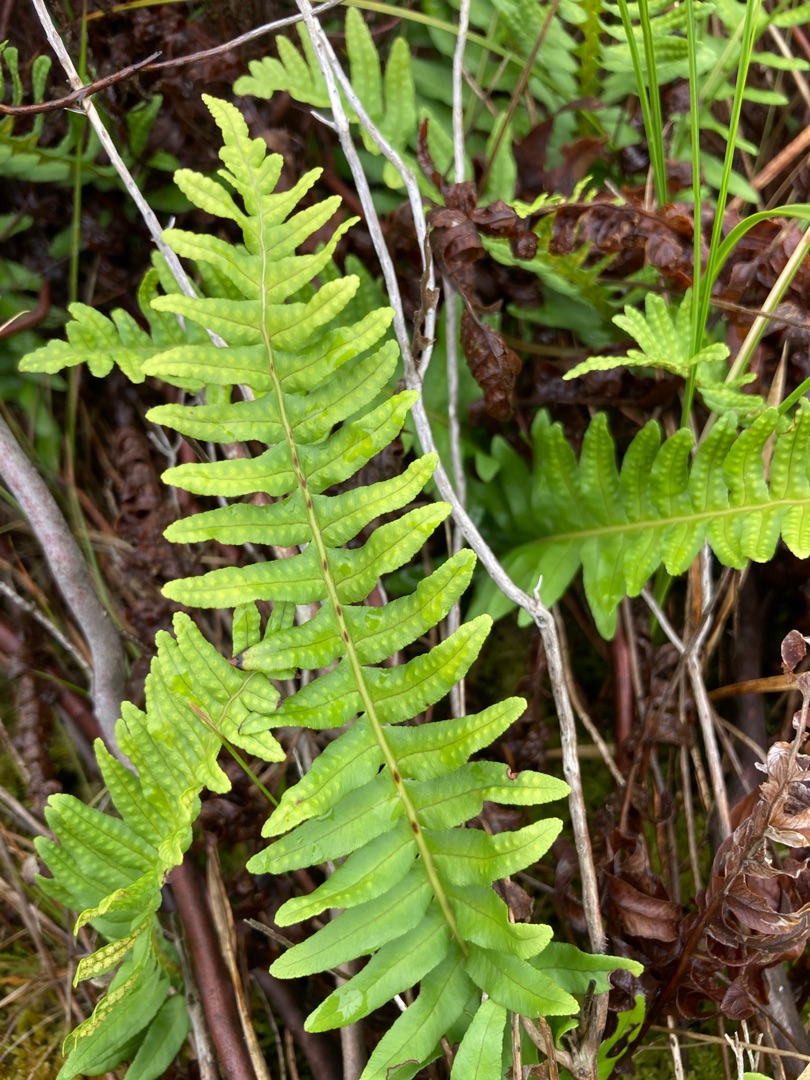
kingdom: Plantae
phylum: Tracheophyta
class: Polypodiopsida
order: Polypodiales
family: Polypodiaceae
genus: Polypodium
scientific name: Polypodium vulgare
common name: Almindelig engelsød
